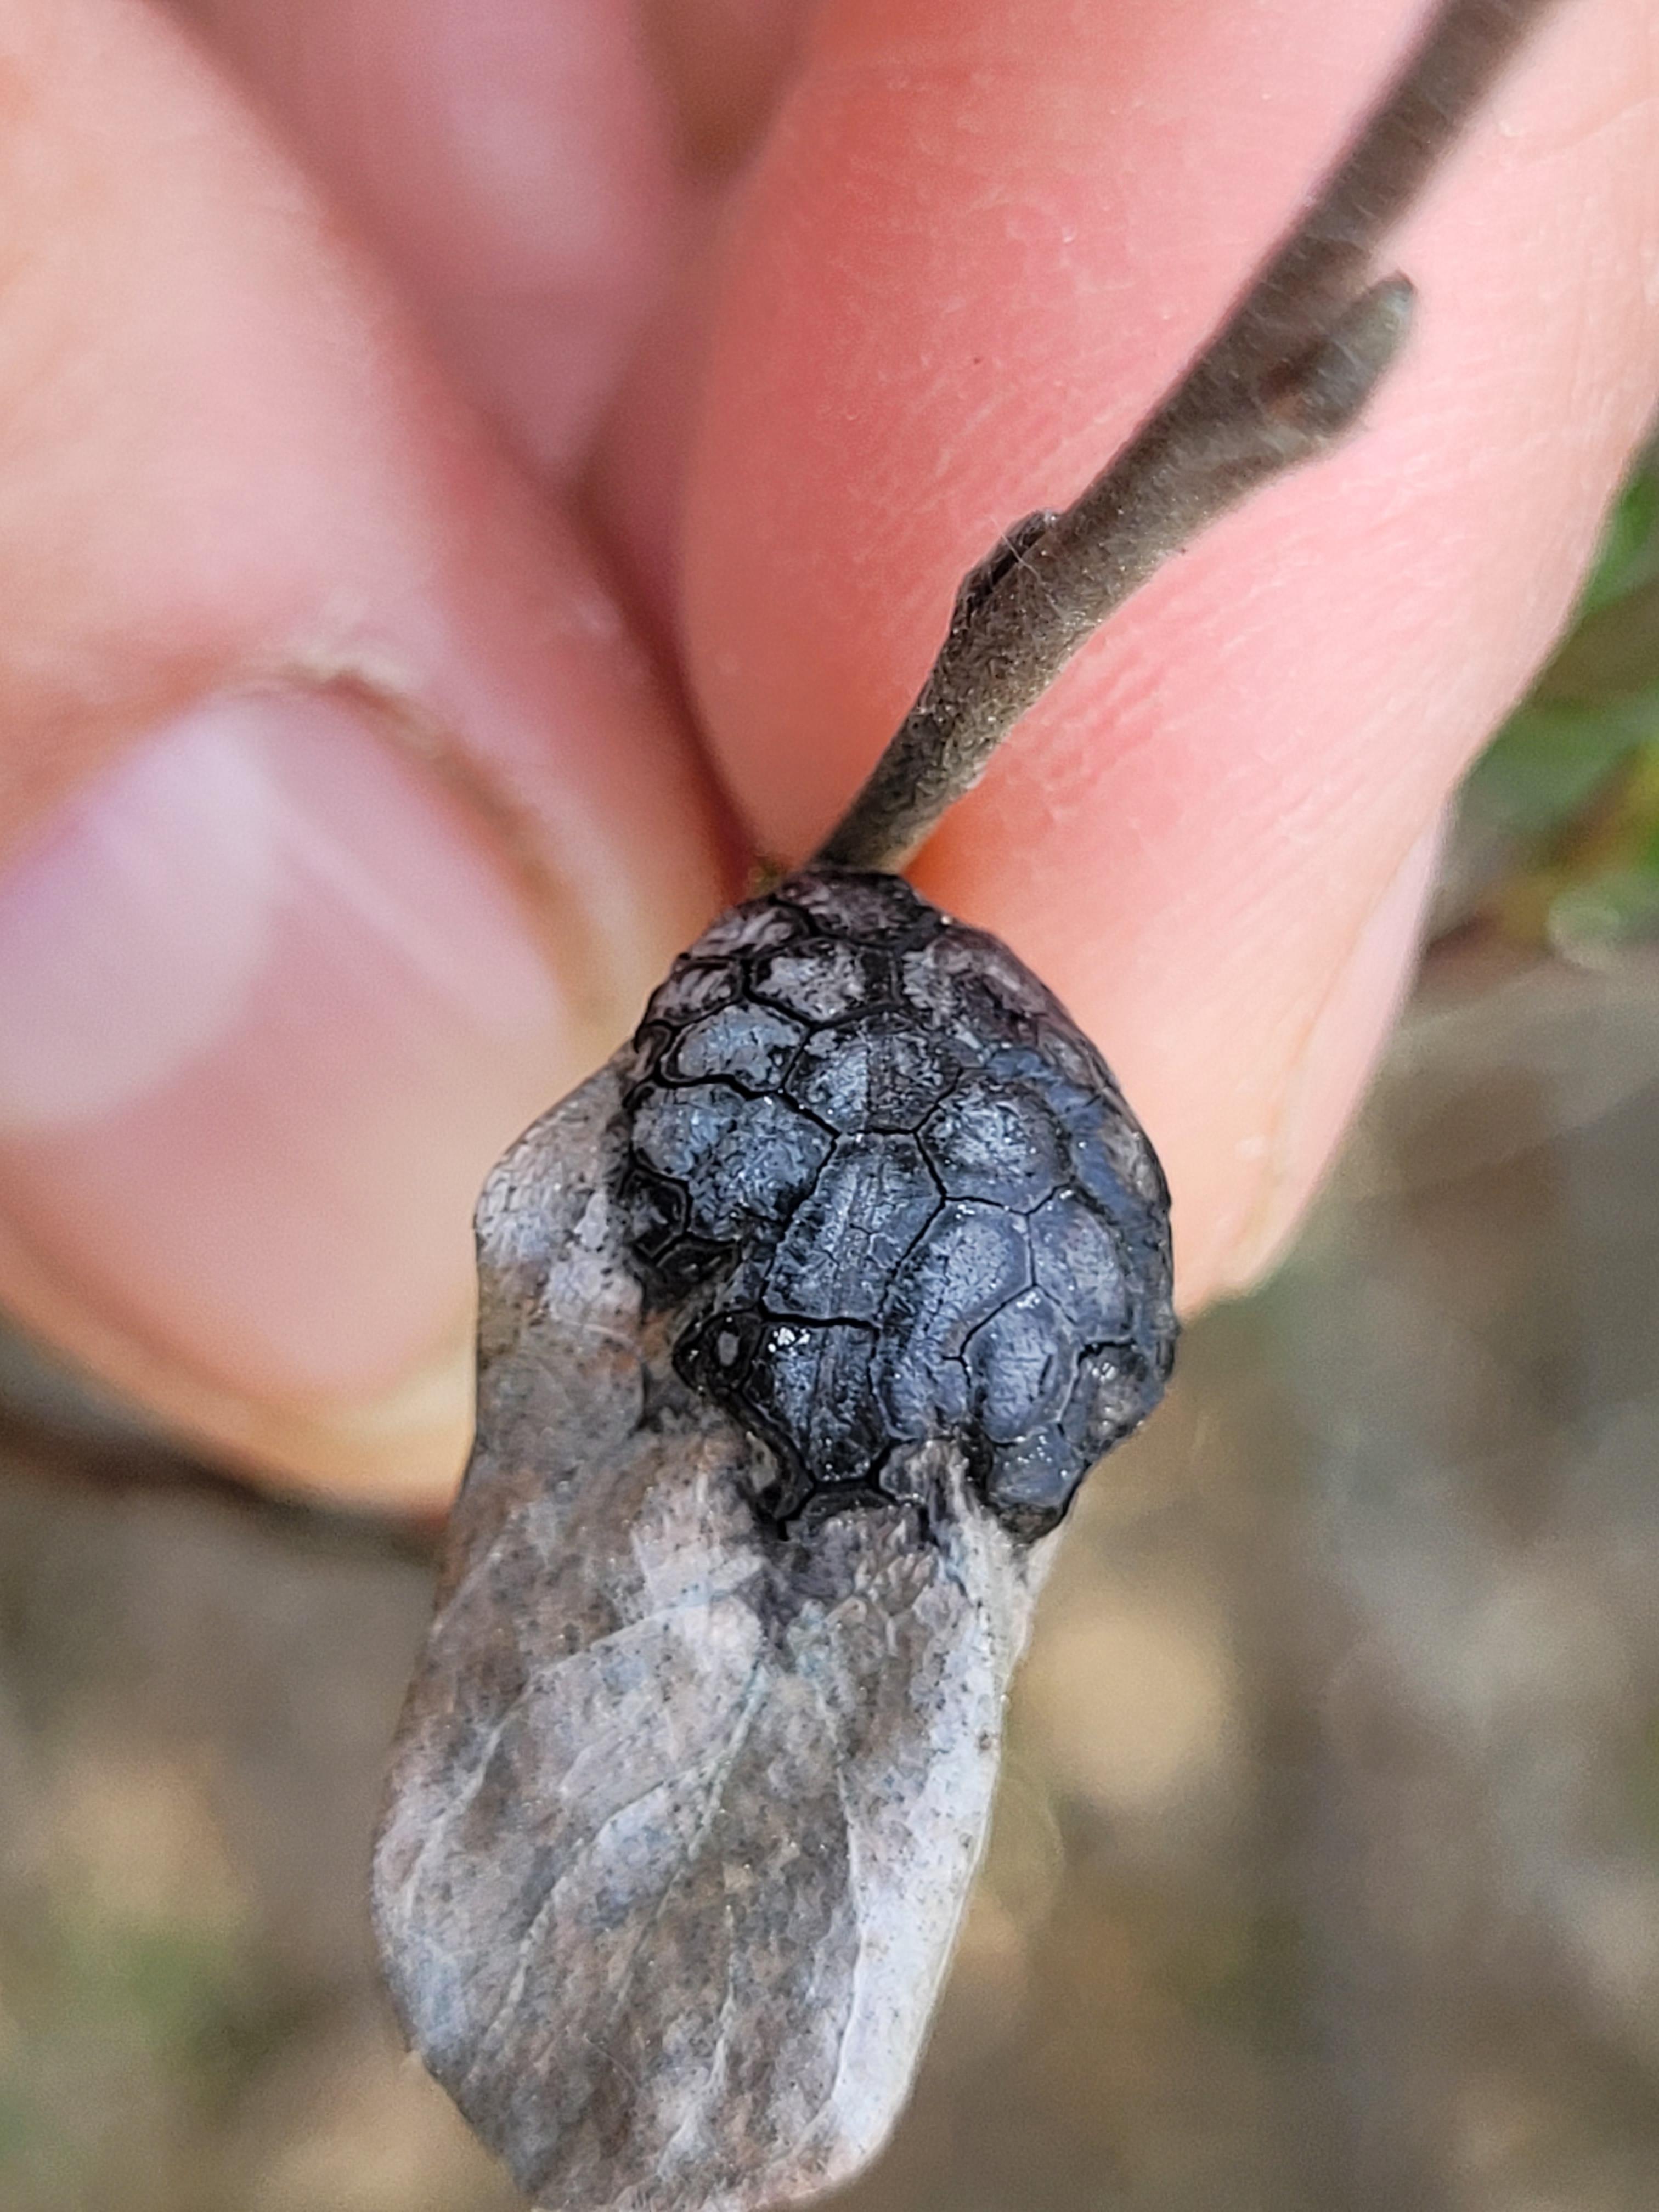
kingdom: Fungi
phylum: Ascomycota
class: Leotiomycetes
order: Rhytismatales
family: Rhytismataceae
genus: Rhytisma
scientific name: Rhytisma salicinum
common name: pile-rynkeplet
